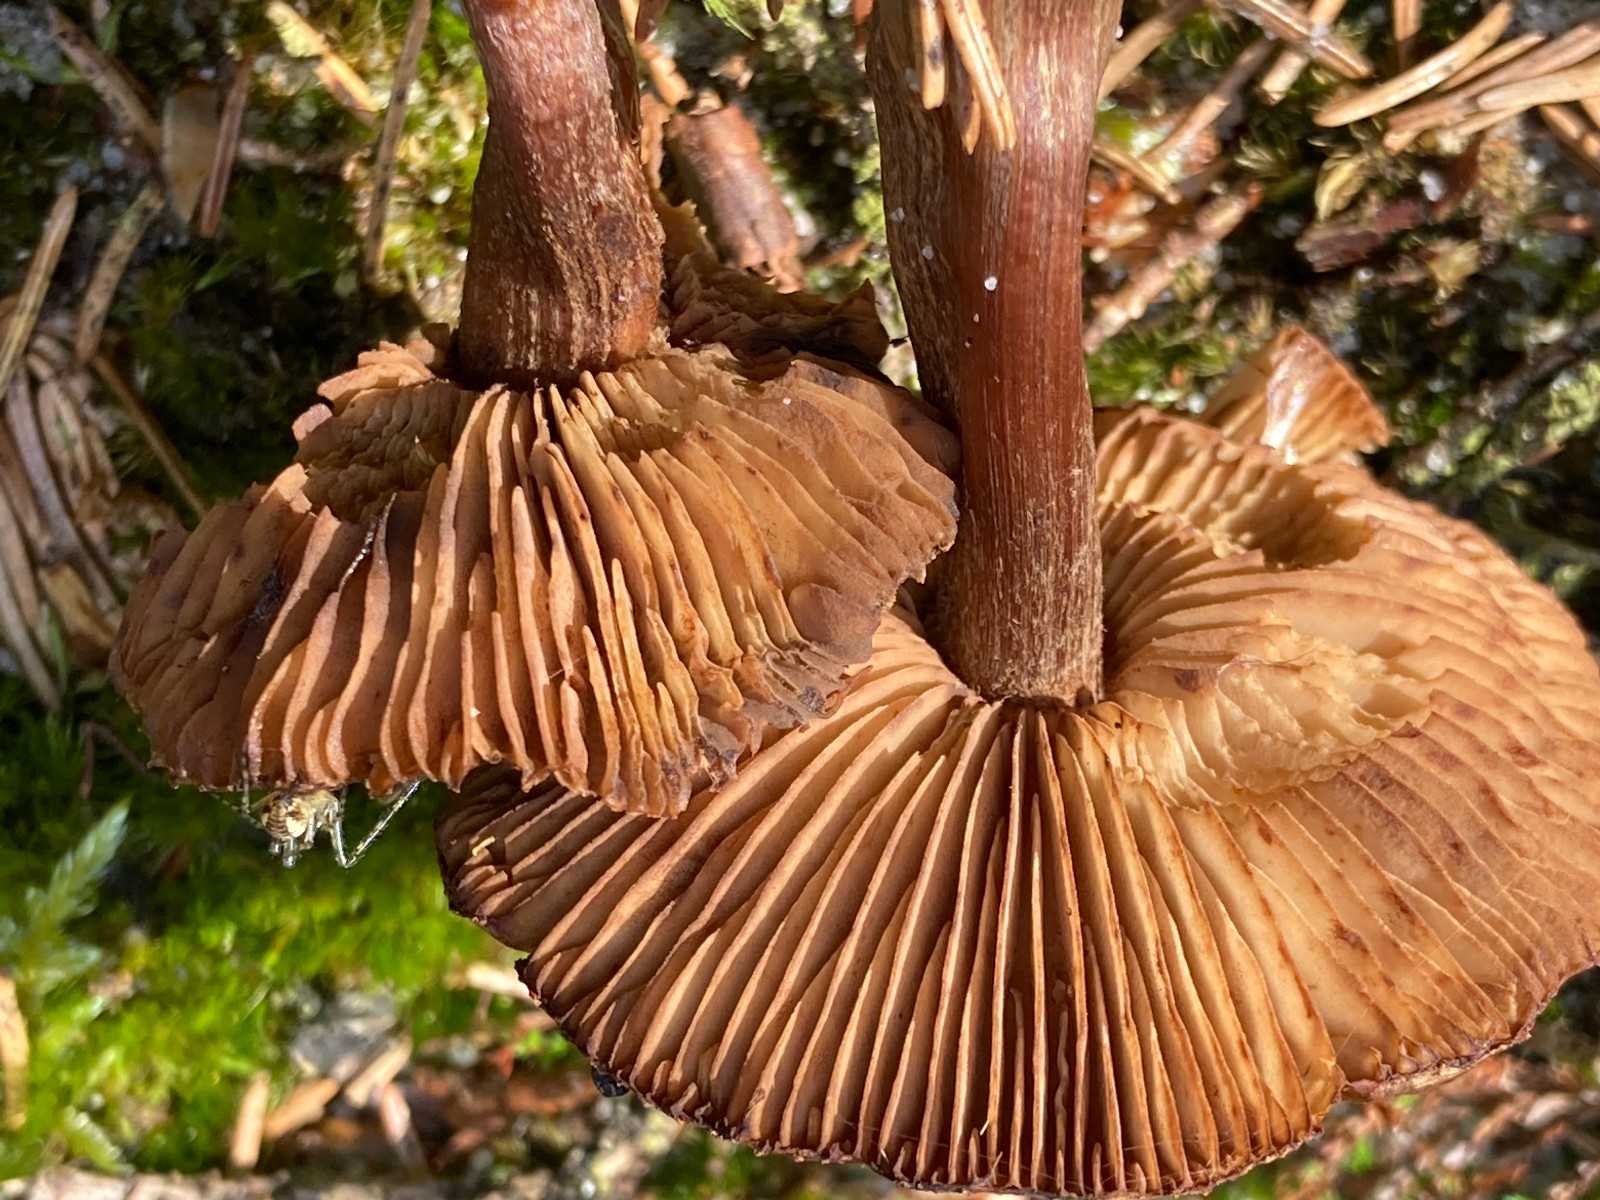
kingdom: Fungi
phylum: Basidiomycota
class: Agaricomycetes
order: Agaricales
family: Inocybaceae
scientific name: Inocybaceae
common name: trævlhatfamilien
